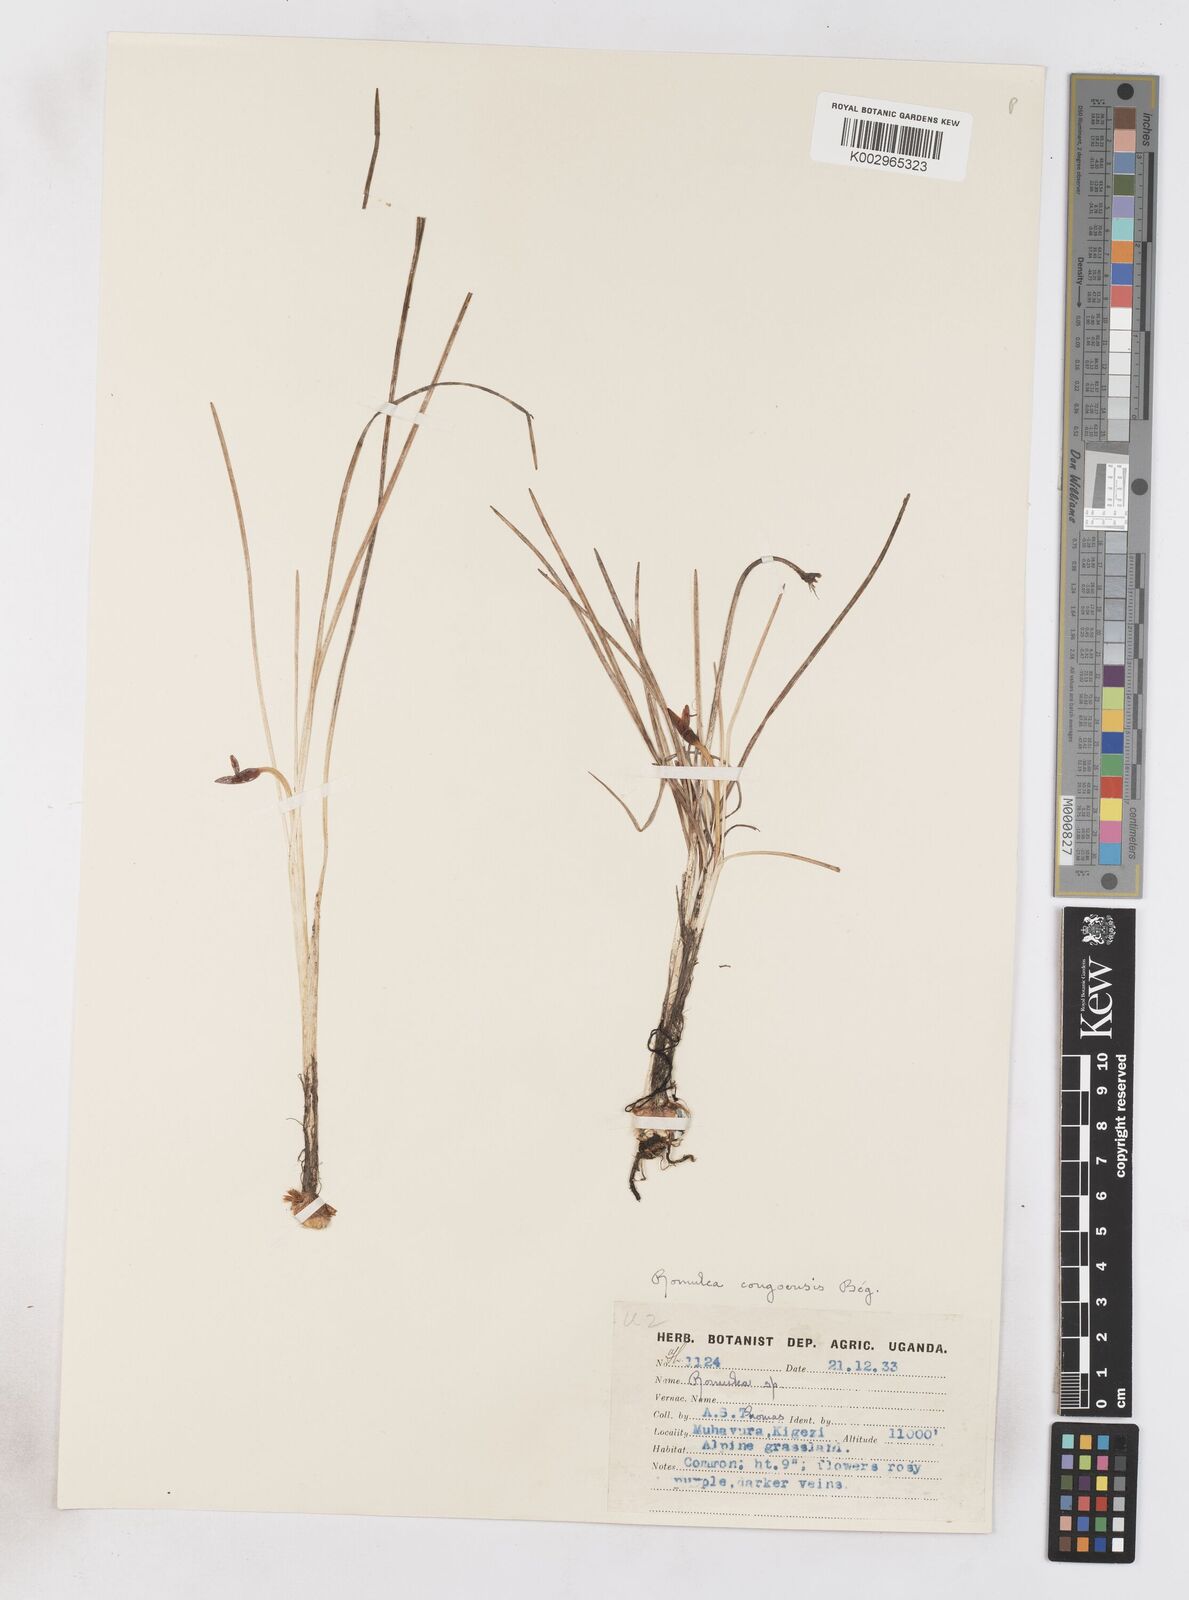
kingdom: Plantae
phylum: Tracheophyta
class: Liliopsida
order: Asparagales
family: Iridaceae
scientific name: Iridaceae
